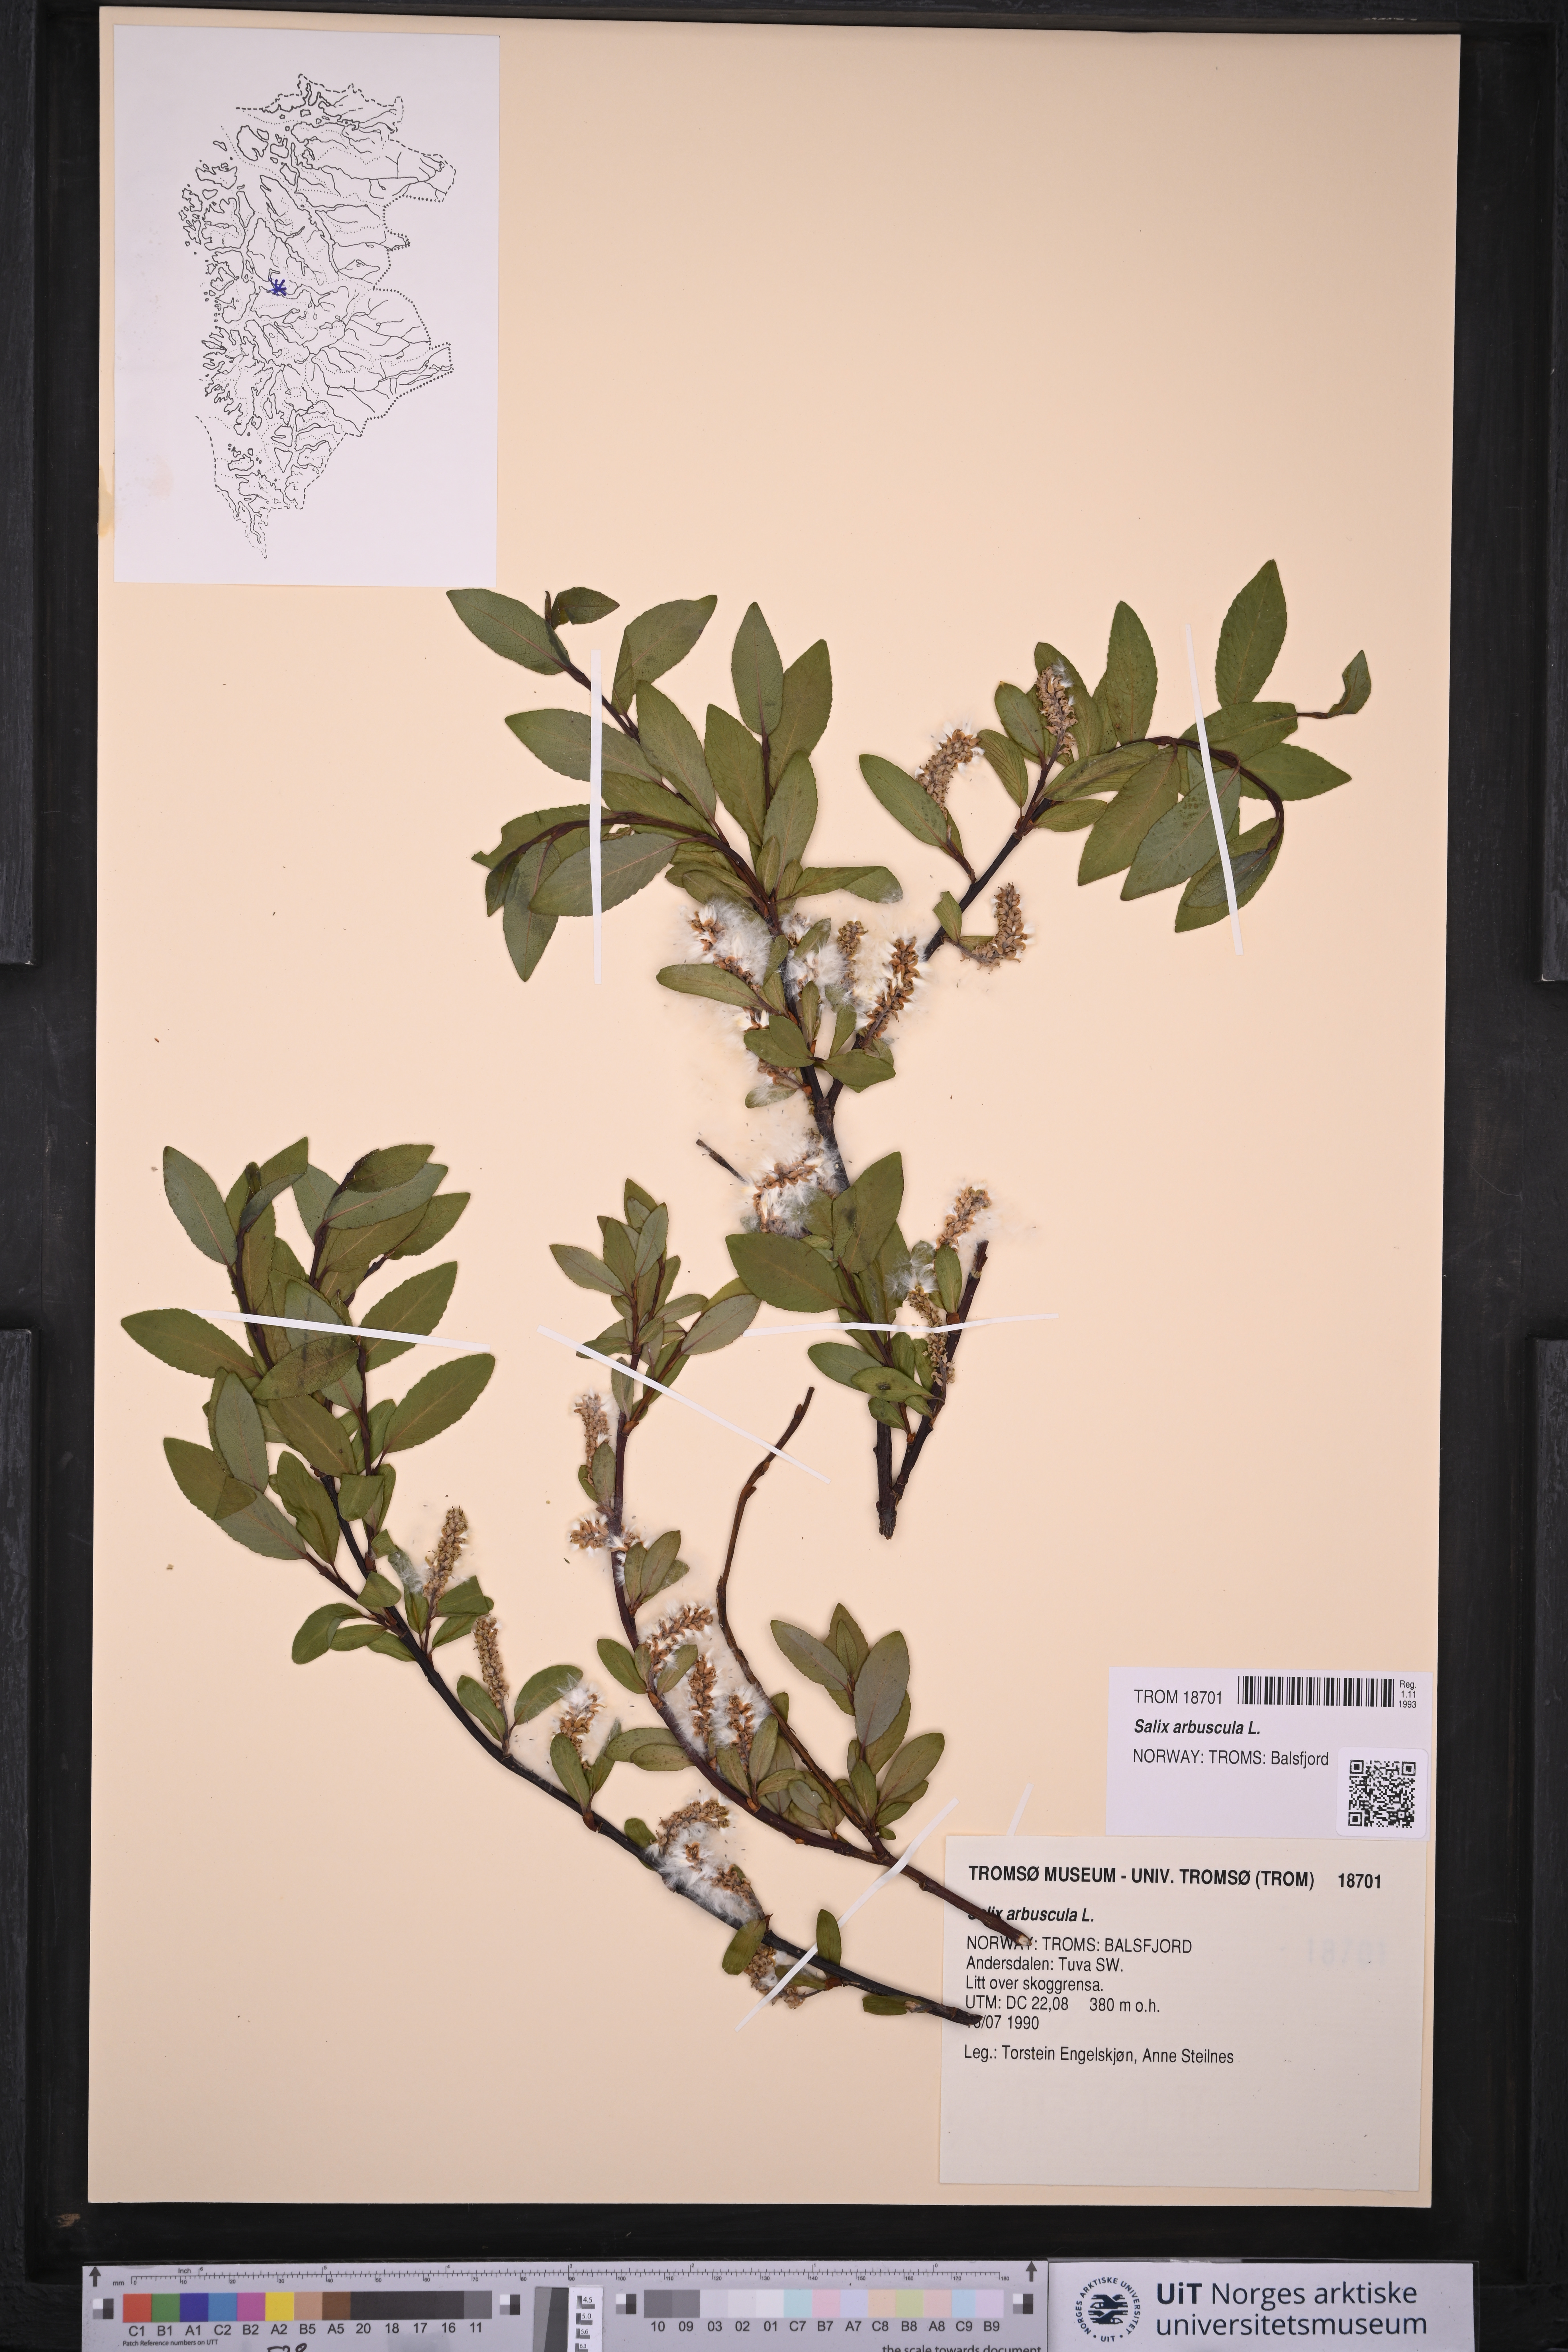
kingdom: Plantae
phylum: Tracheophyta
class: Magnoliopsida
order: Malpighiales
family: Salicaceae
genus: Salix
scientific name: Salix arbuscula
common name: Mountain willow
